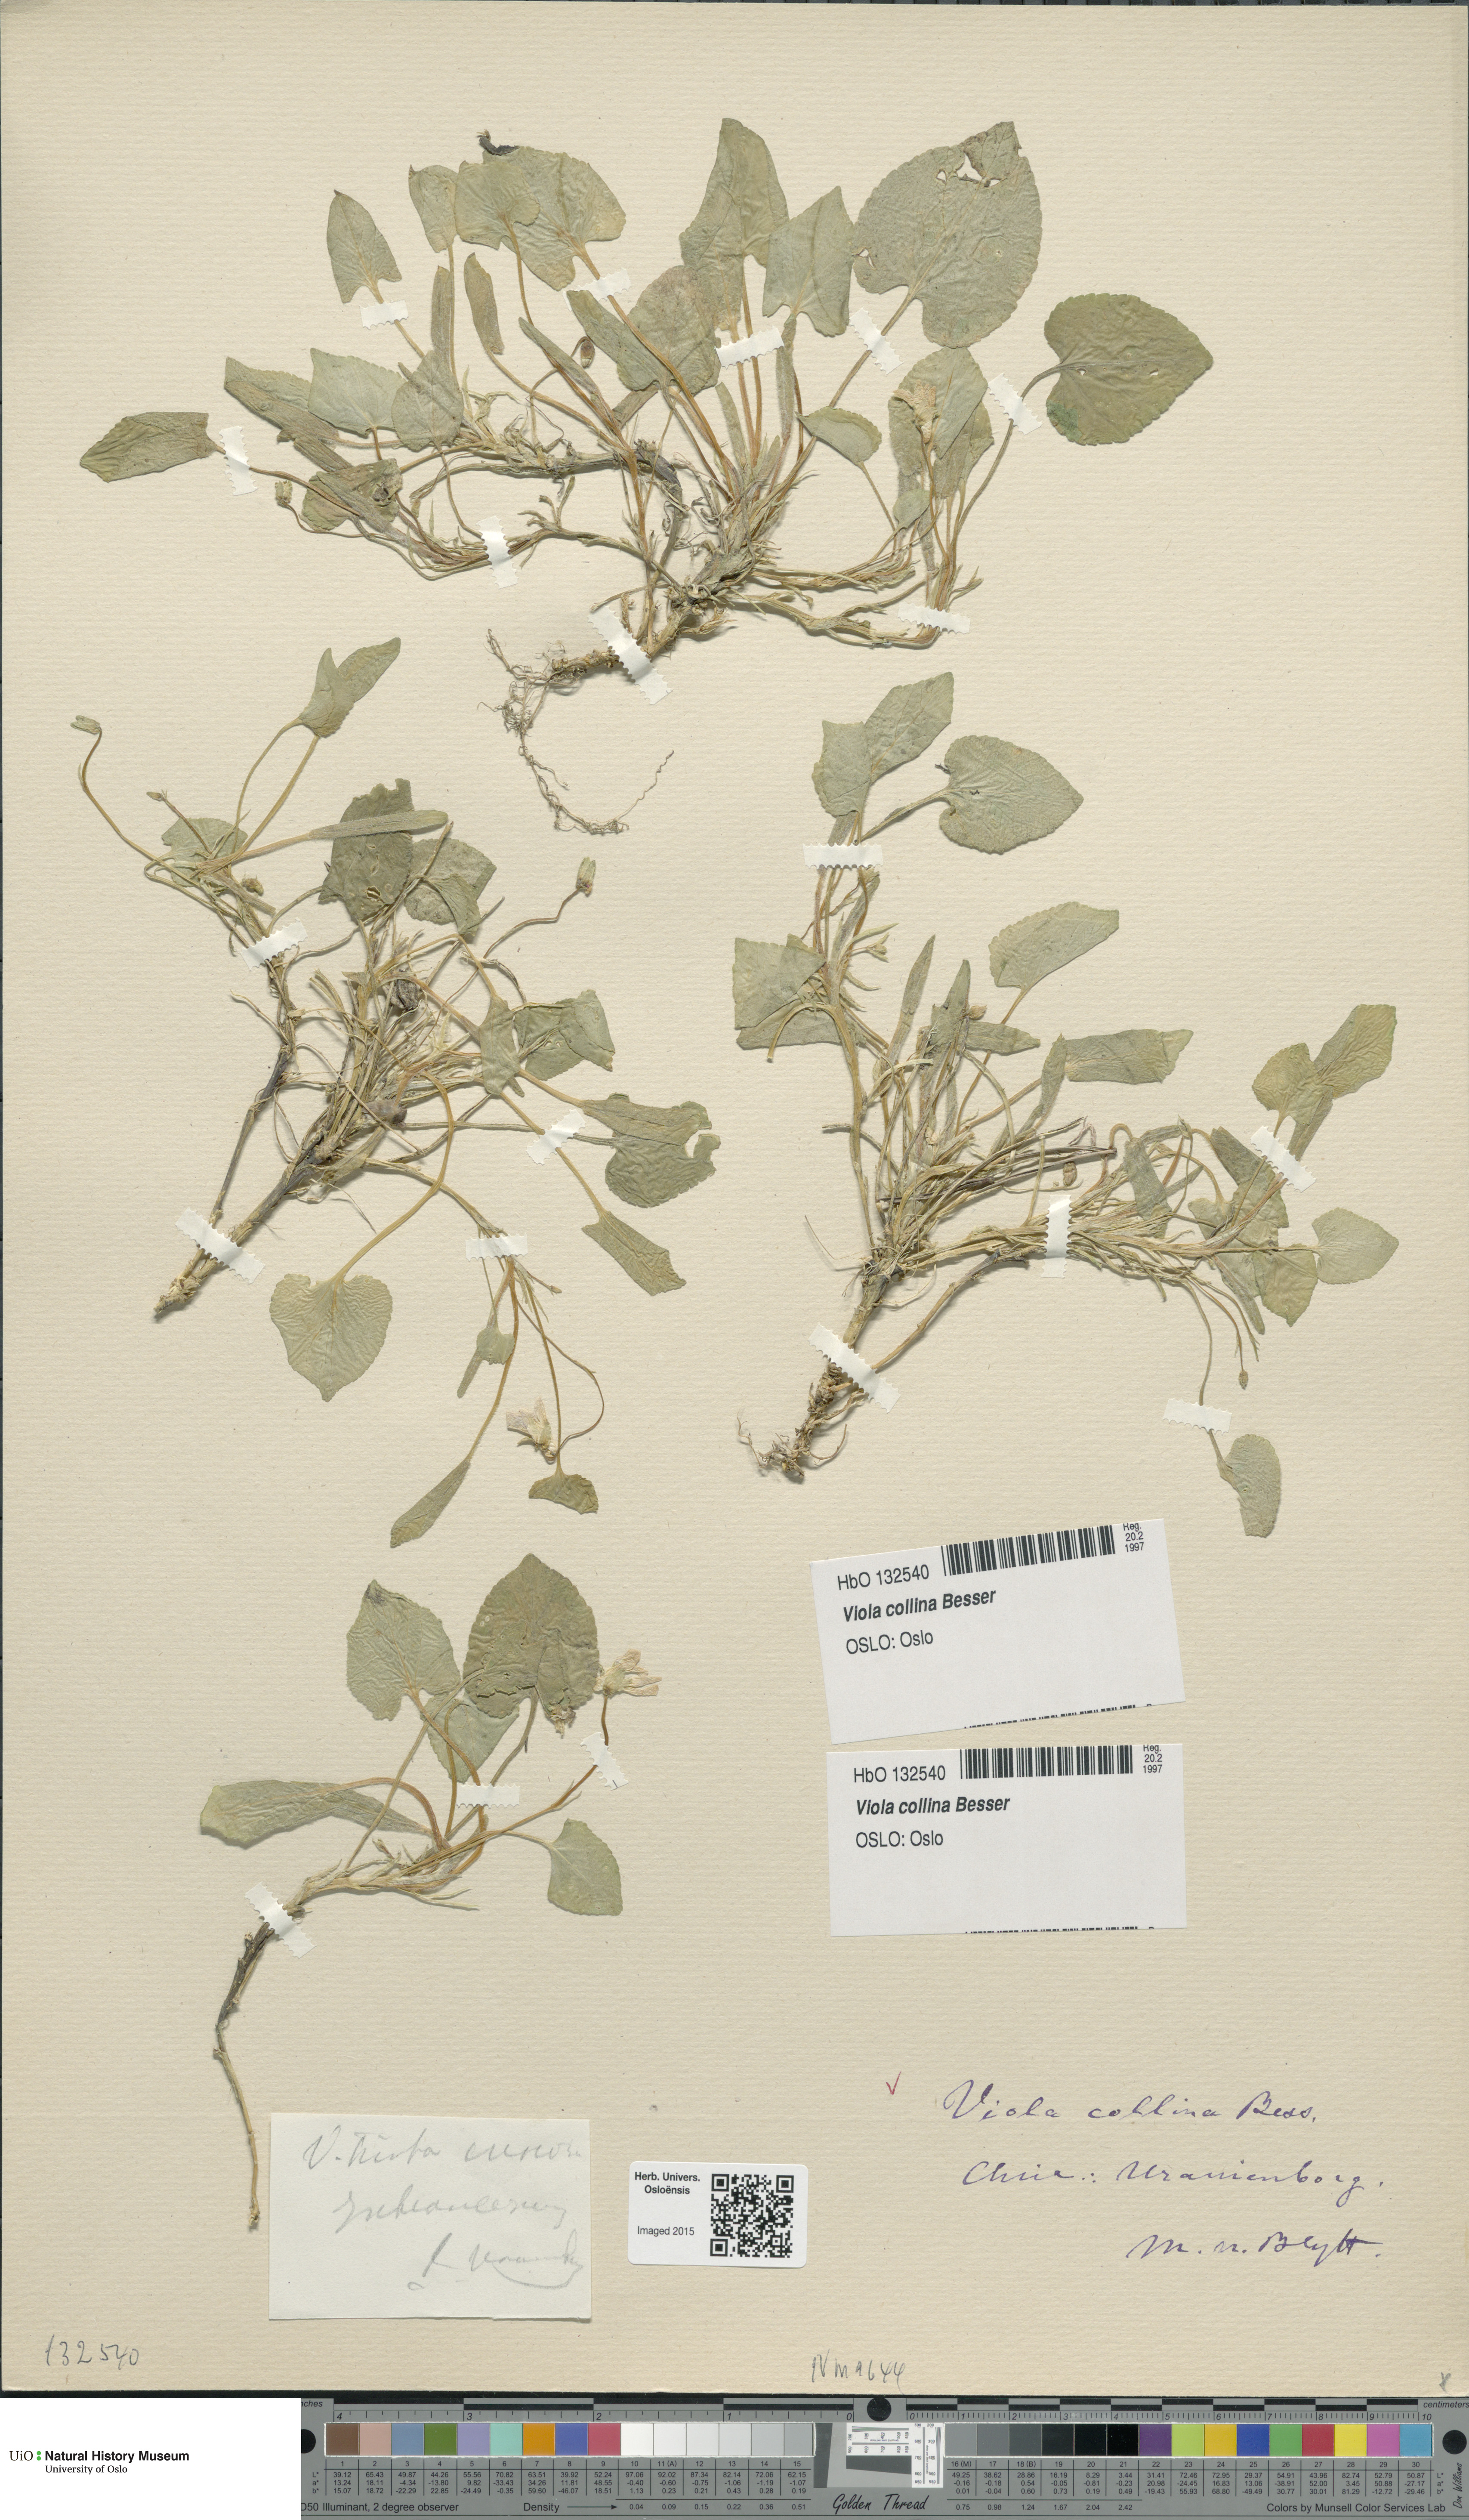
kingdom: Plantae
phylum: Tracheophyta
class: Magnoliopsida
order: Malpighiales
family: Violaceae
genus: Viola
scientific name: Viola collina
